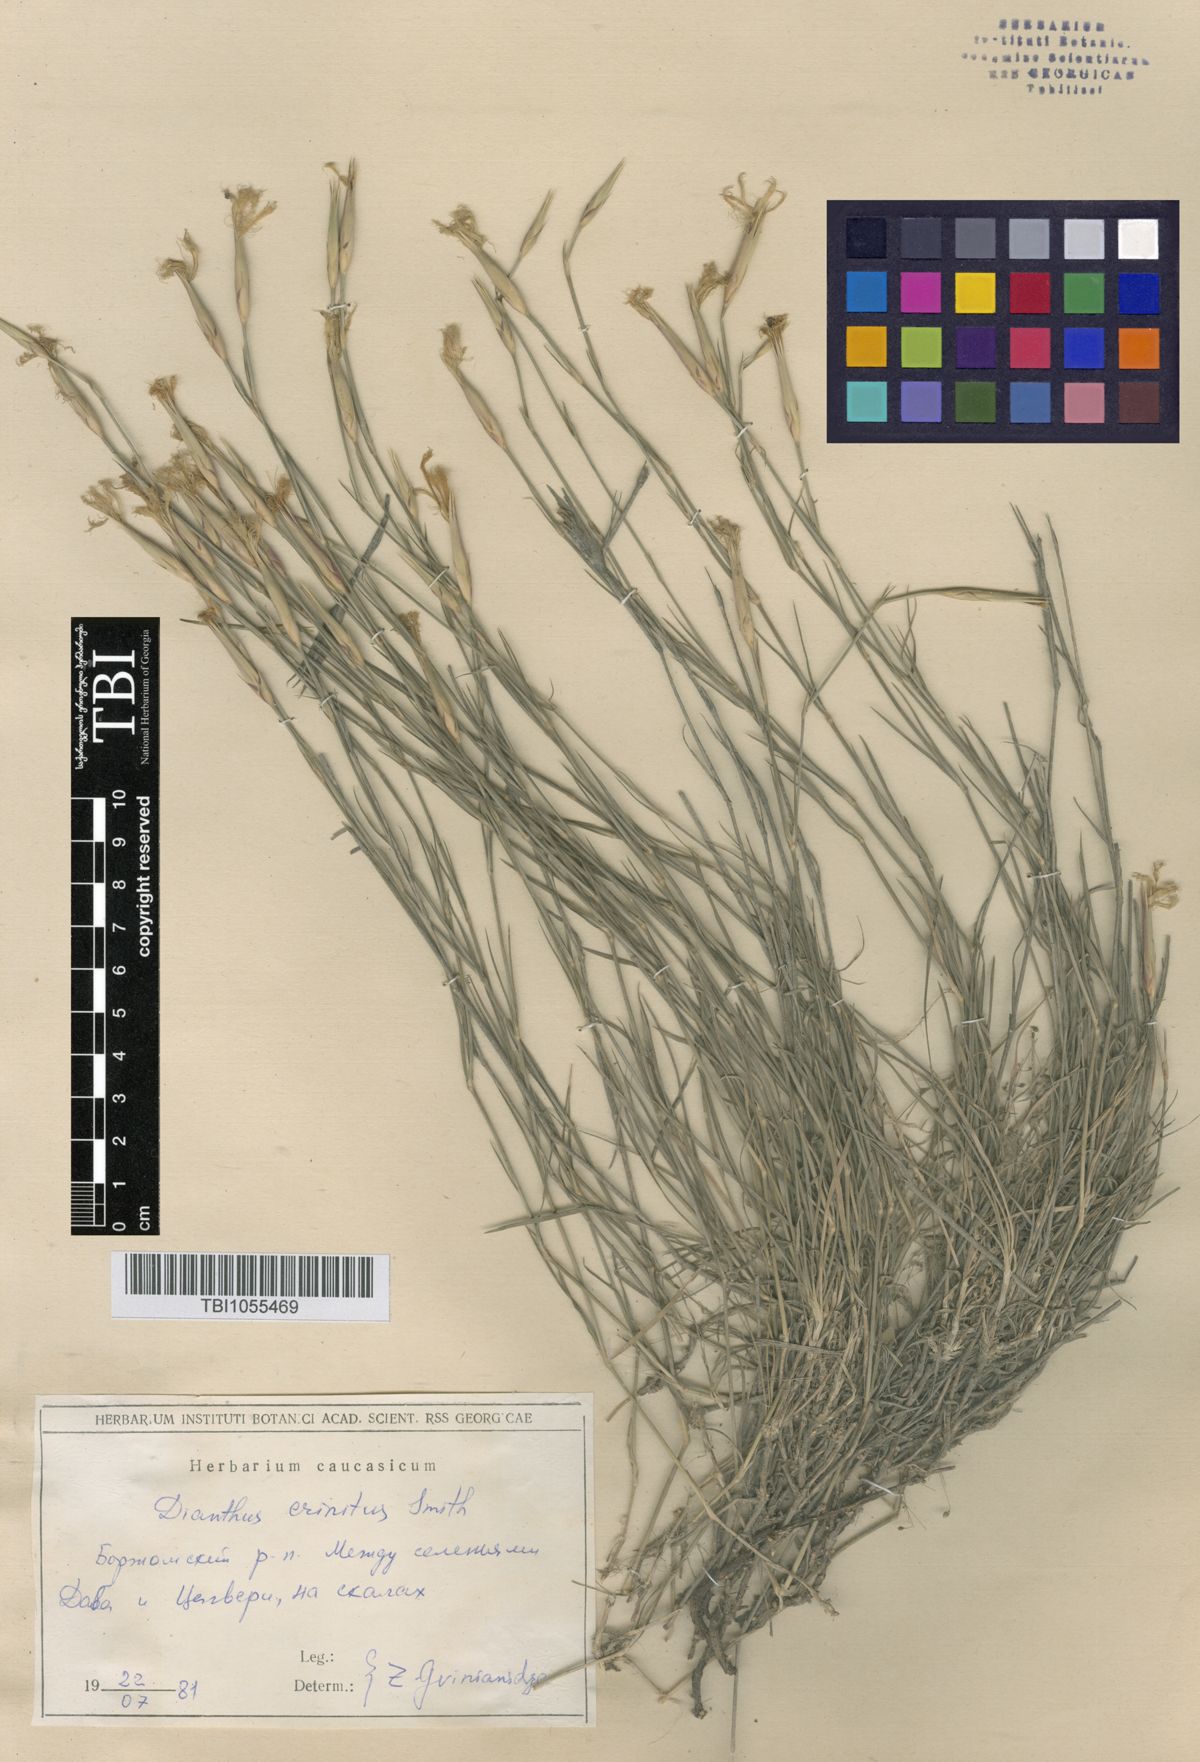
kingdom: Plantae
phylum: Tracheophyta
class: Magnoliopsida
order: Caryophyllales
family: Caryophyllaceae
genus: Dianthus
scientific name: Dianthus crinitus
